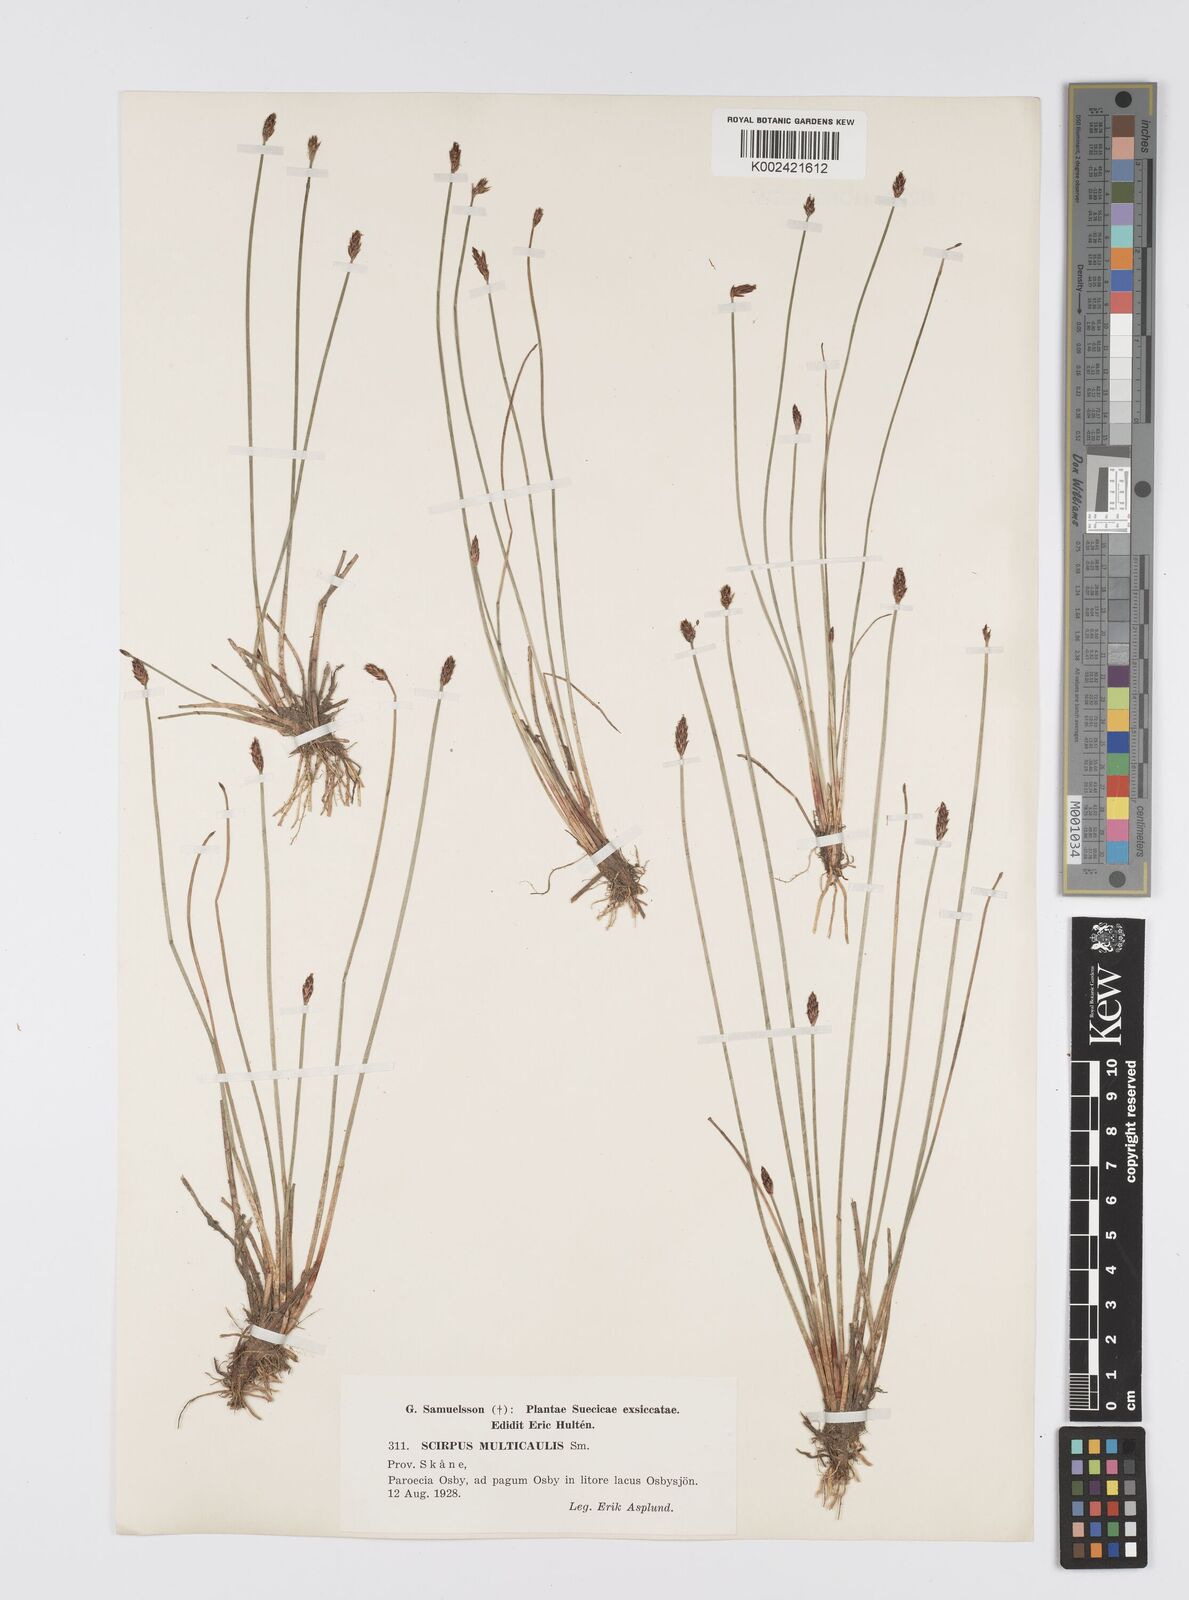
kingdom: Plantae
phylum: Tracheophyta
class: Liliopsida
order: Poales
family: Cyperaceae
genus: Eleocharis
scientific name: Eleocharis multicaulis
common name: Many-stalked spike-rush
